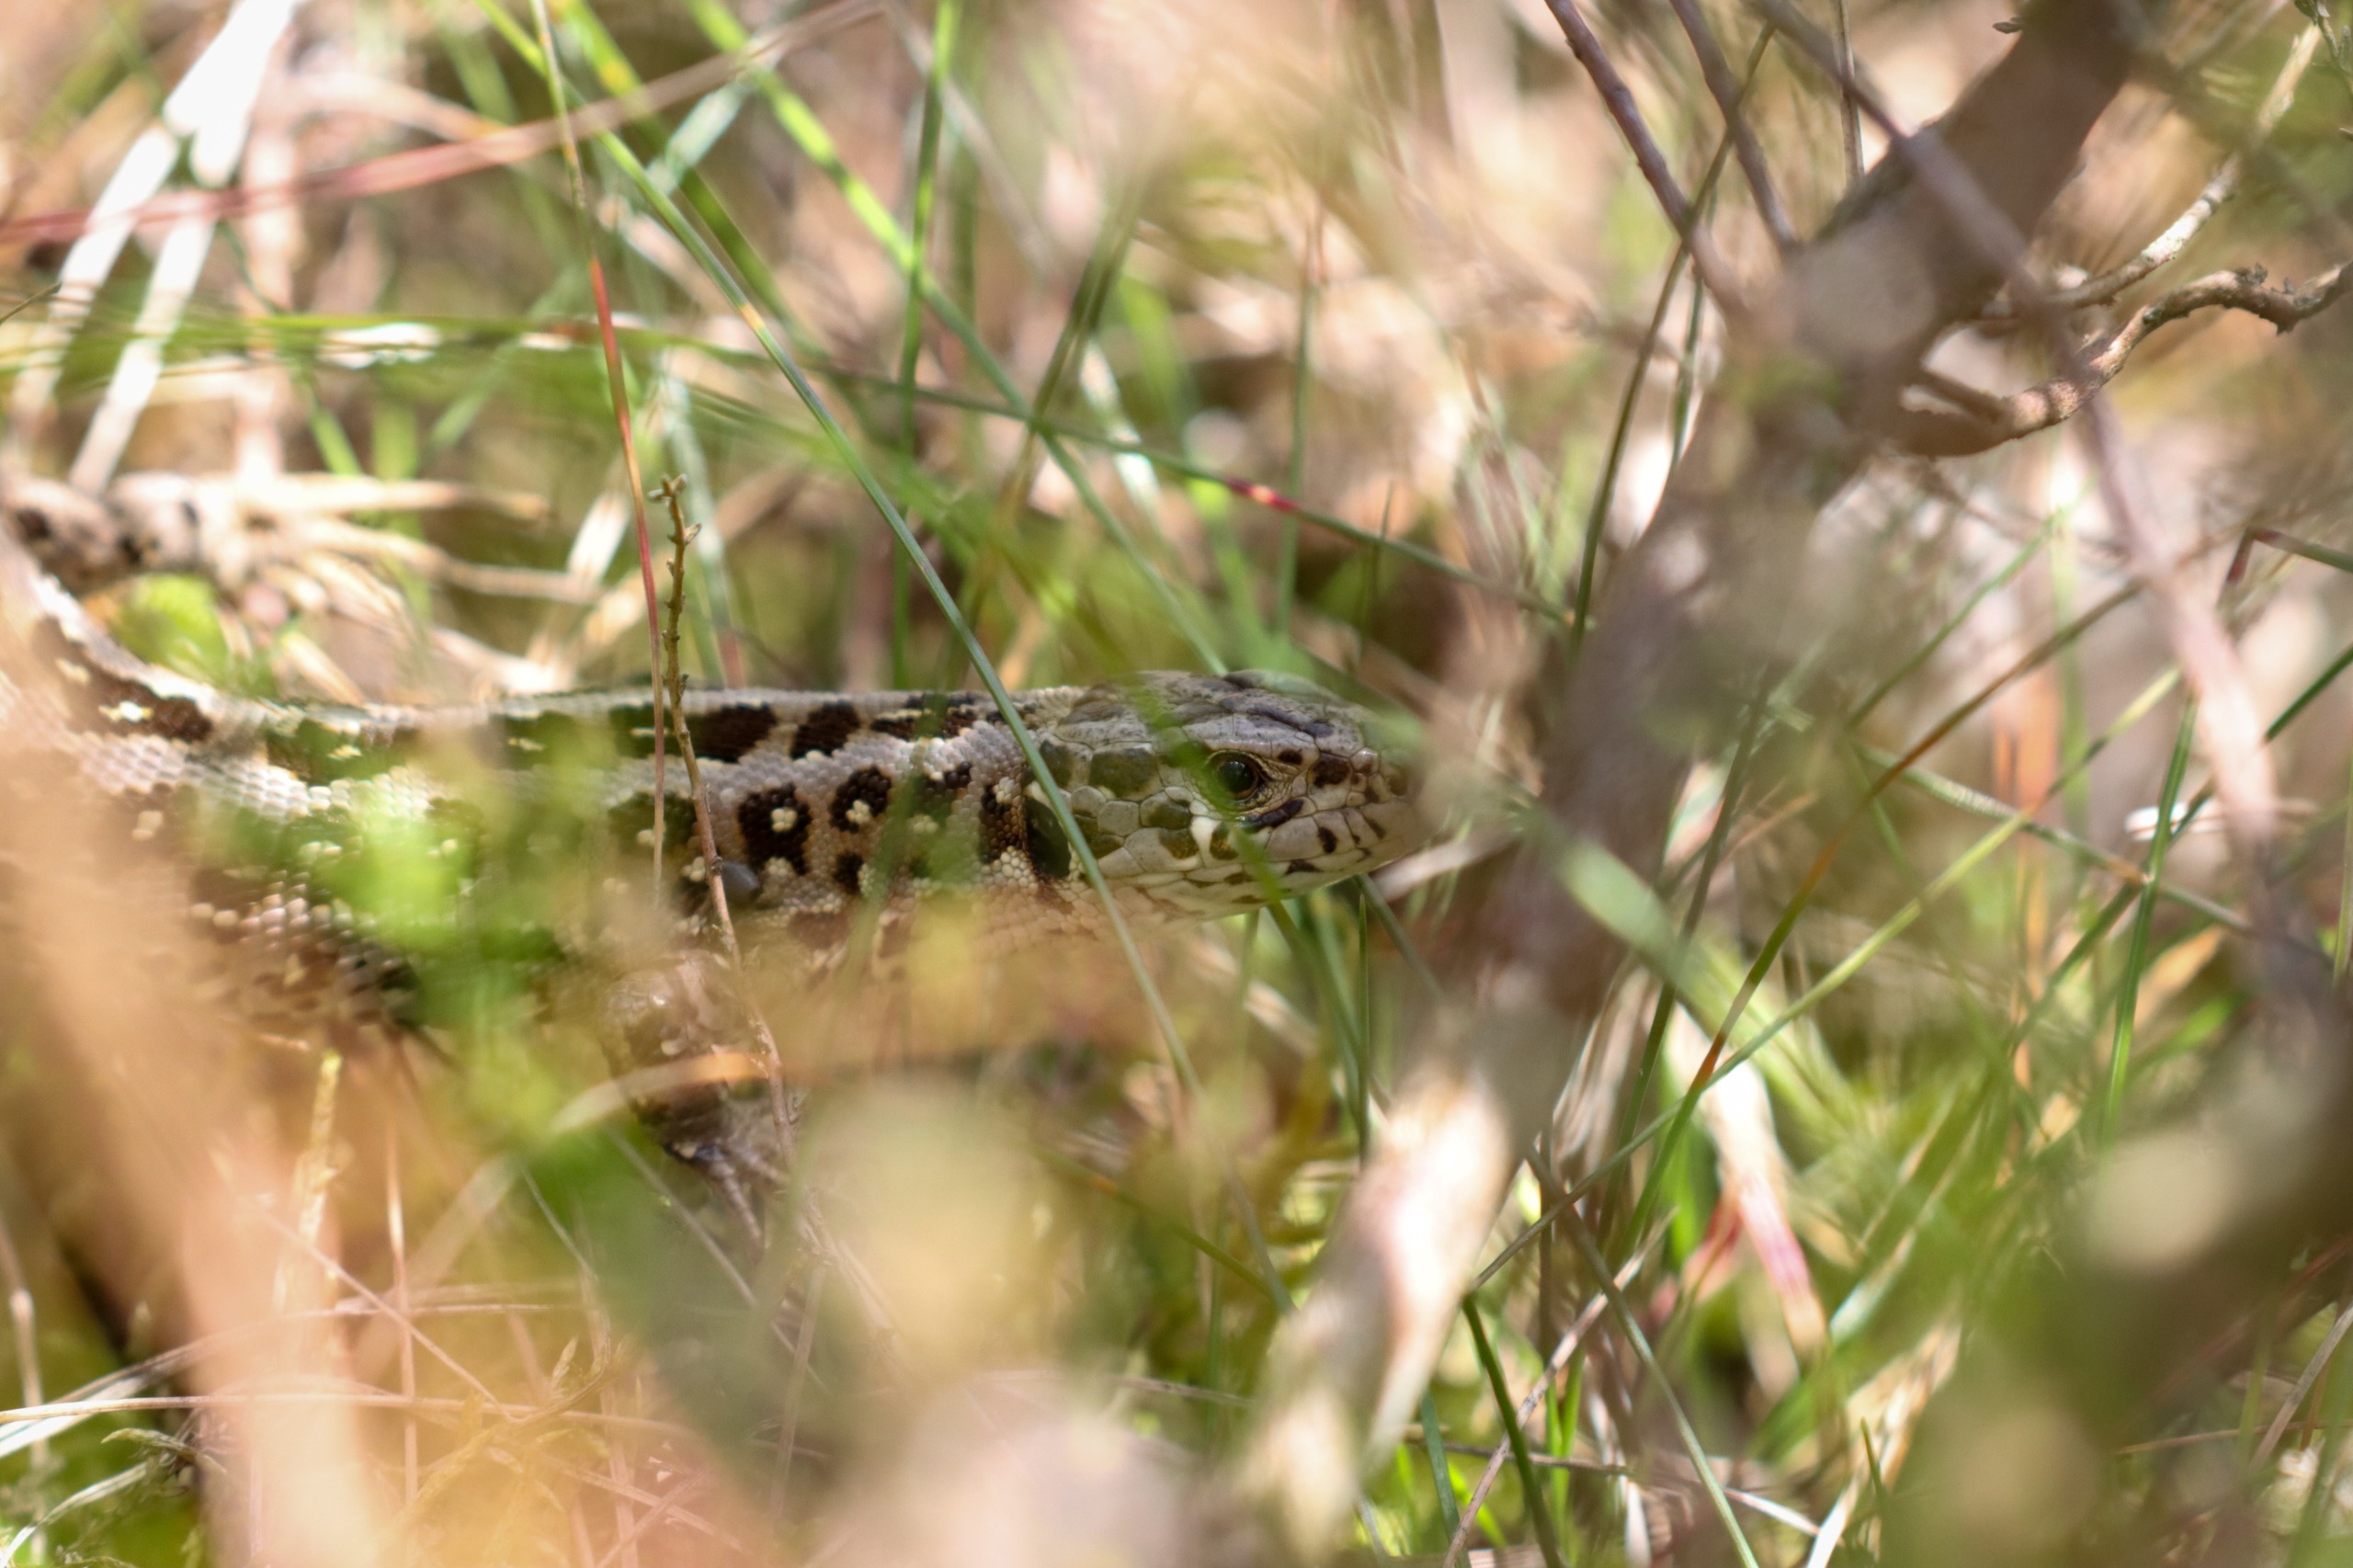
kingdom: Animalia
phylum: Chordata
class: Squamata
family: Lacertidae
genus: Lacerta
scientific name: Lacerta agilis
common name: Markfirben
